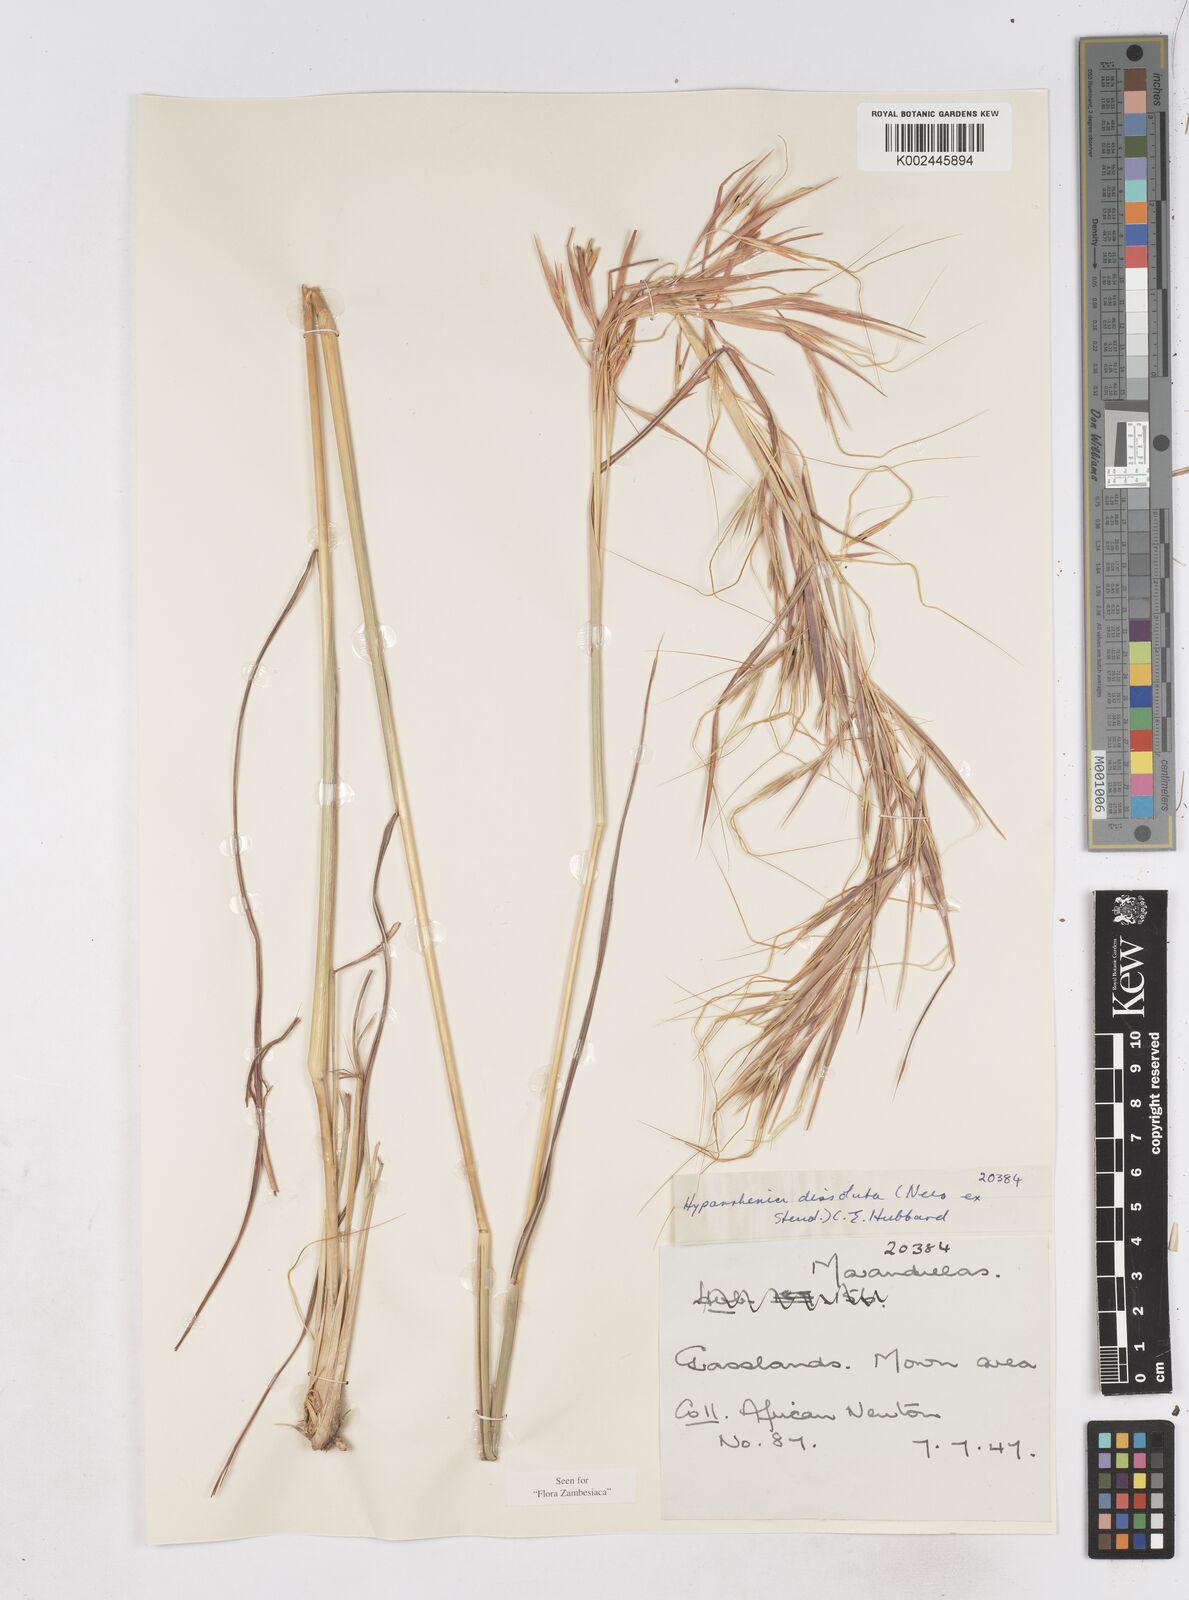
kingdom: Plantae
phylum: Tracheophyta
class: Liliopsida
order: Poales
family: Poaceae
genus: Hyperthelia
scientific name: Hyperthelia dissoluta
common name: Yellow thatching grass
